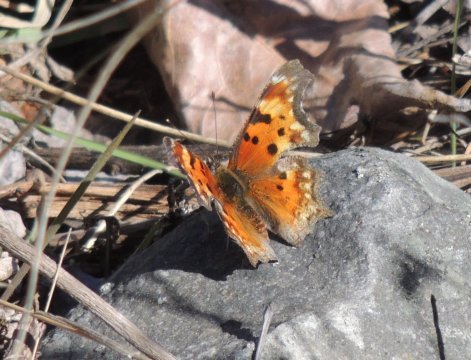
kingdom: Animalia
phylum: Arthropoda
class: Insecta
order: Lepidoptera
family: Nymphalidae
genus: Polygonia
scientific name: Polygonia gracilis
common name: Hoary Comma
